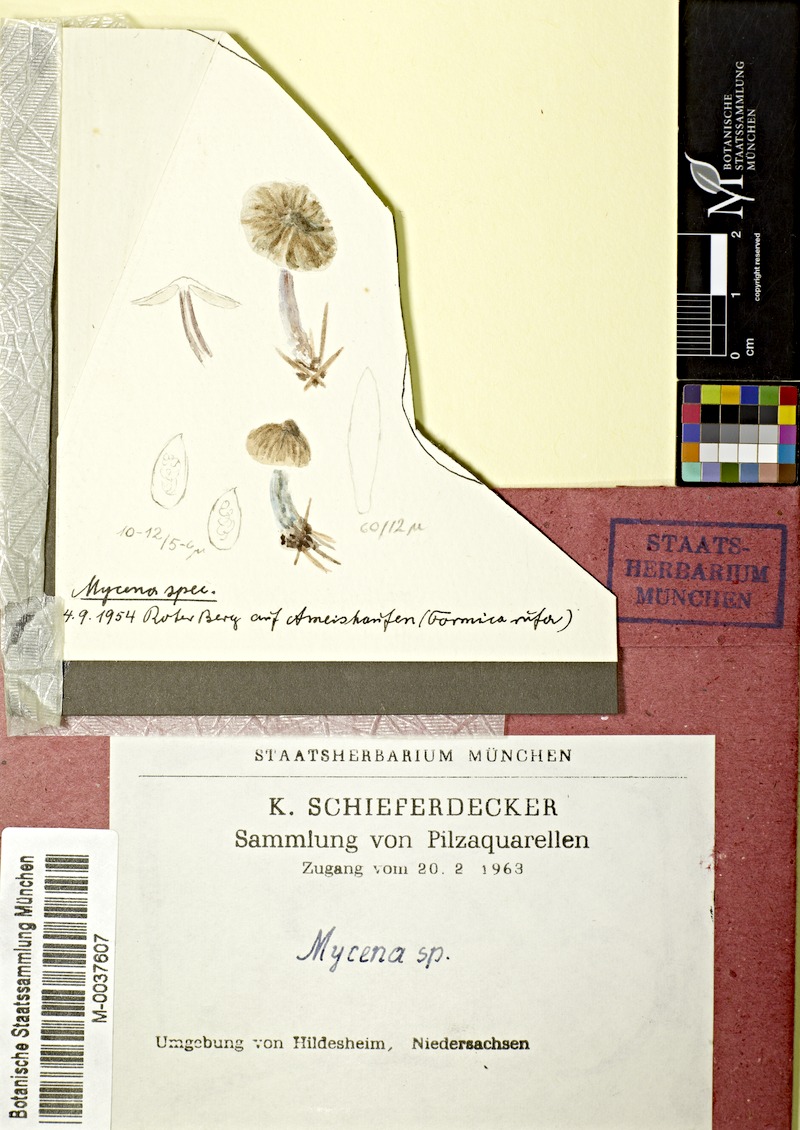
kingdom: Fungi
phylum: Basidiomycota
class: Agaricomycetes
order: Agaricales
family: Mycenaceae
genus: Mycena
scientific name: Mycena
